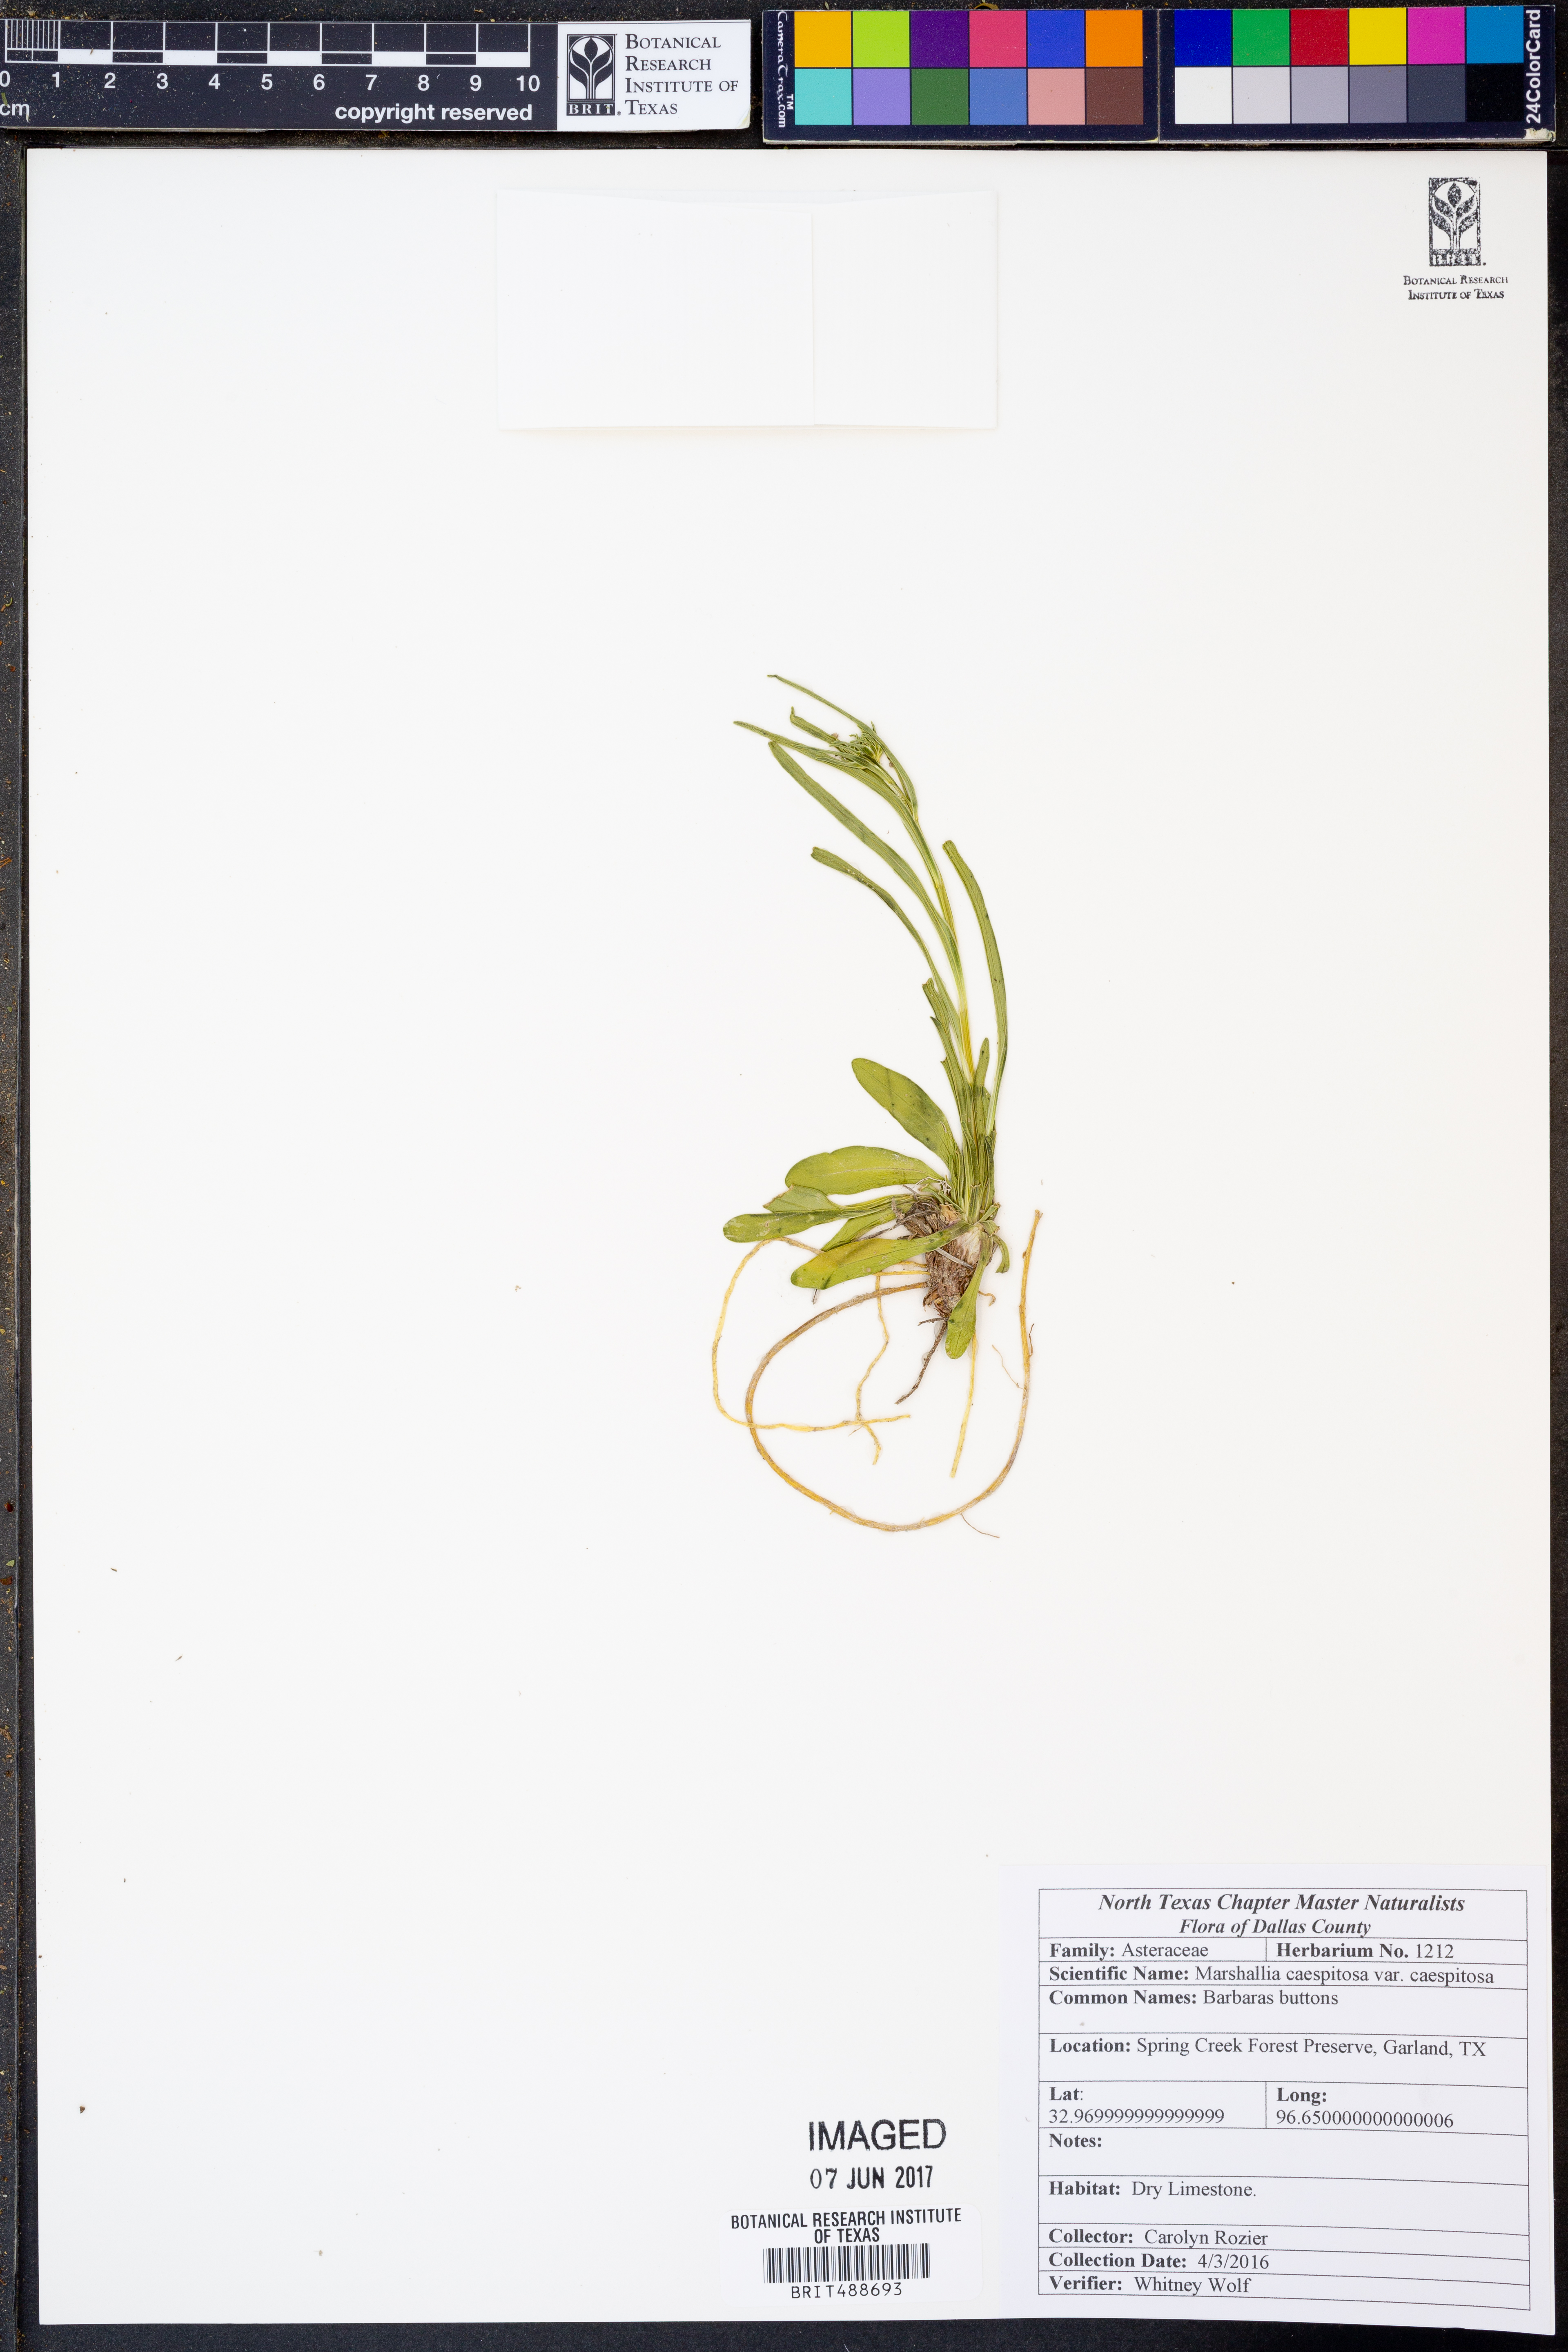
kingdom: Plantae
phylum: Tracheophyta
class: Magnoliopsida
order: Asterales
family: Asteraceae
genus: Marshallia
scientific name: Marshallia caespitosa
